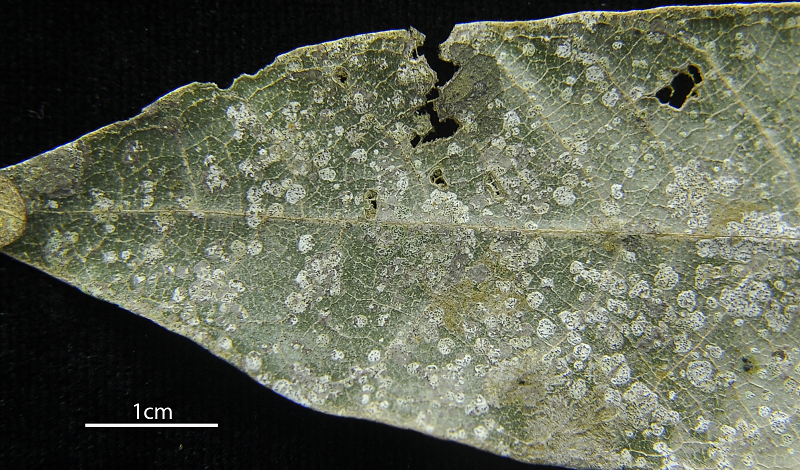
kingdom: Fungi
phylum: Ascomycota
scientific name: Ascomycota
